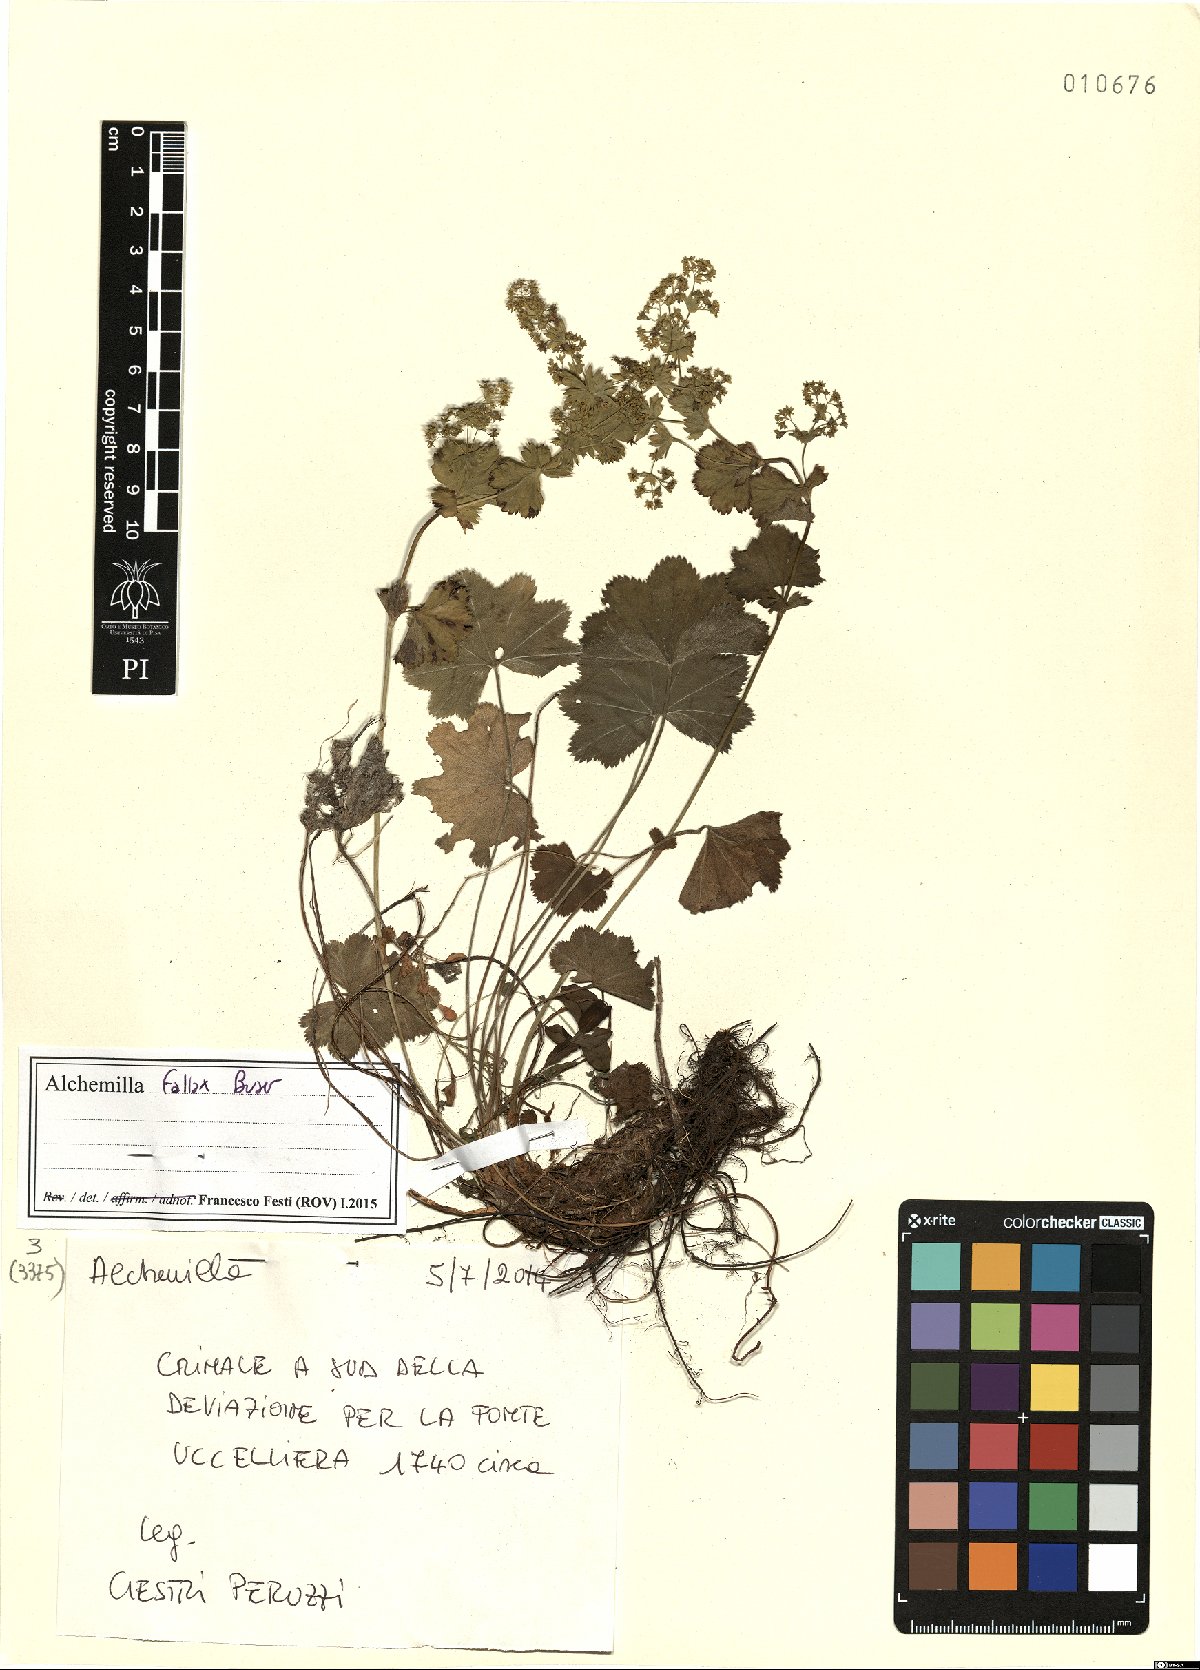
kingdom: Plantae
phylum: Tracheophyta
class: Magnoliopsida
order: Rosales
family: Rosaceae
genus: Alchemilla
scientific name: Alchemilla fallax
